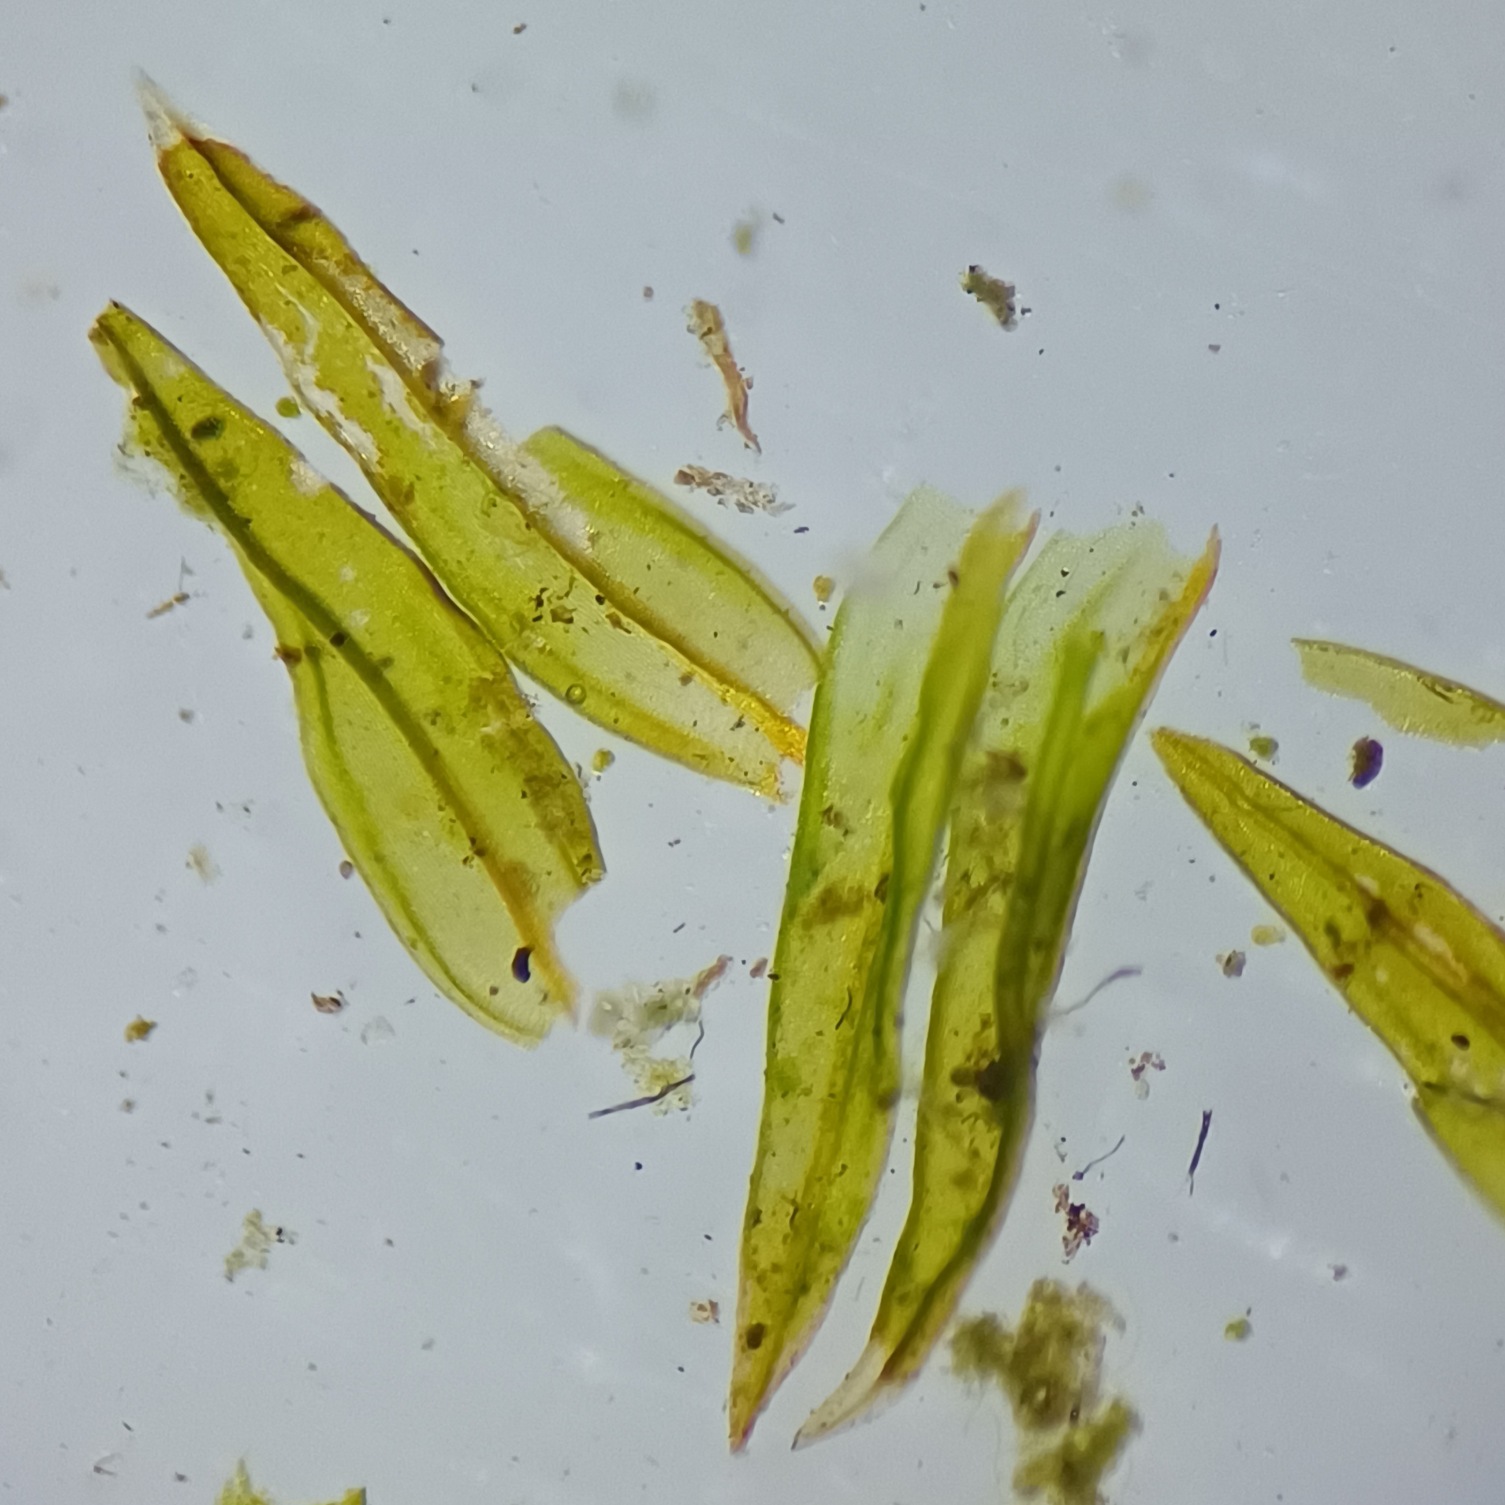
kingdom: Plantae
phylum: Bryophyta
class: Bryopsida
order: Orthotrichales
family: Orthotrichaceae
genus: Orthotrichum
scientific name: Orthotrichum anomalum
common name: Mørk furehætte
